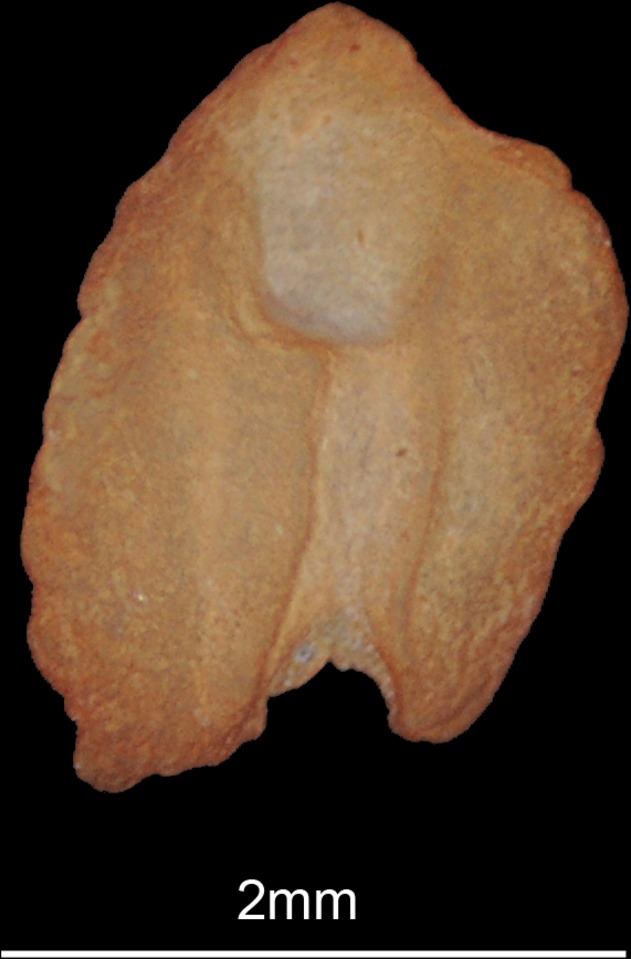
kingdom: Animalia
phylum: Chordata
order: Perciformes
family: Mullidae
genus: Pseudupeneus
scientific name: Pseudupeneus prayensis
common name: West african goatfish
